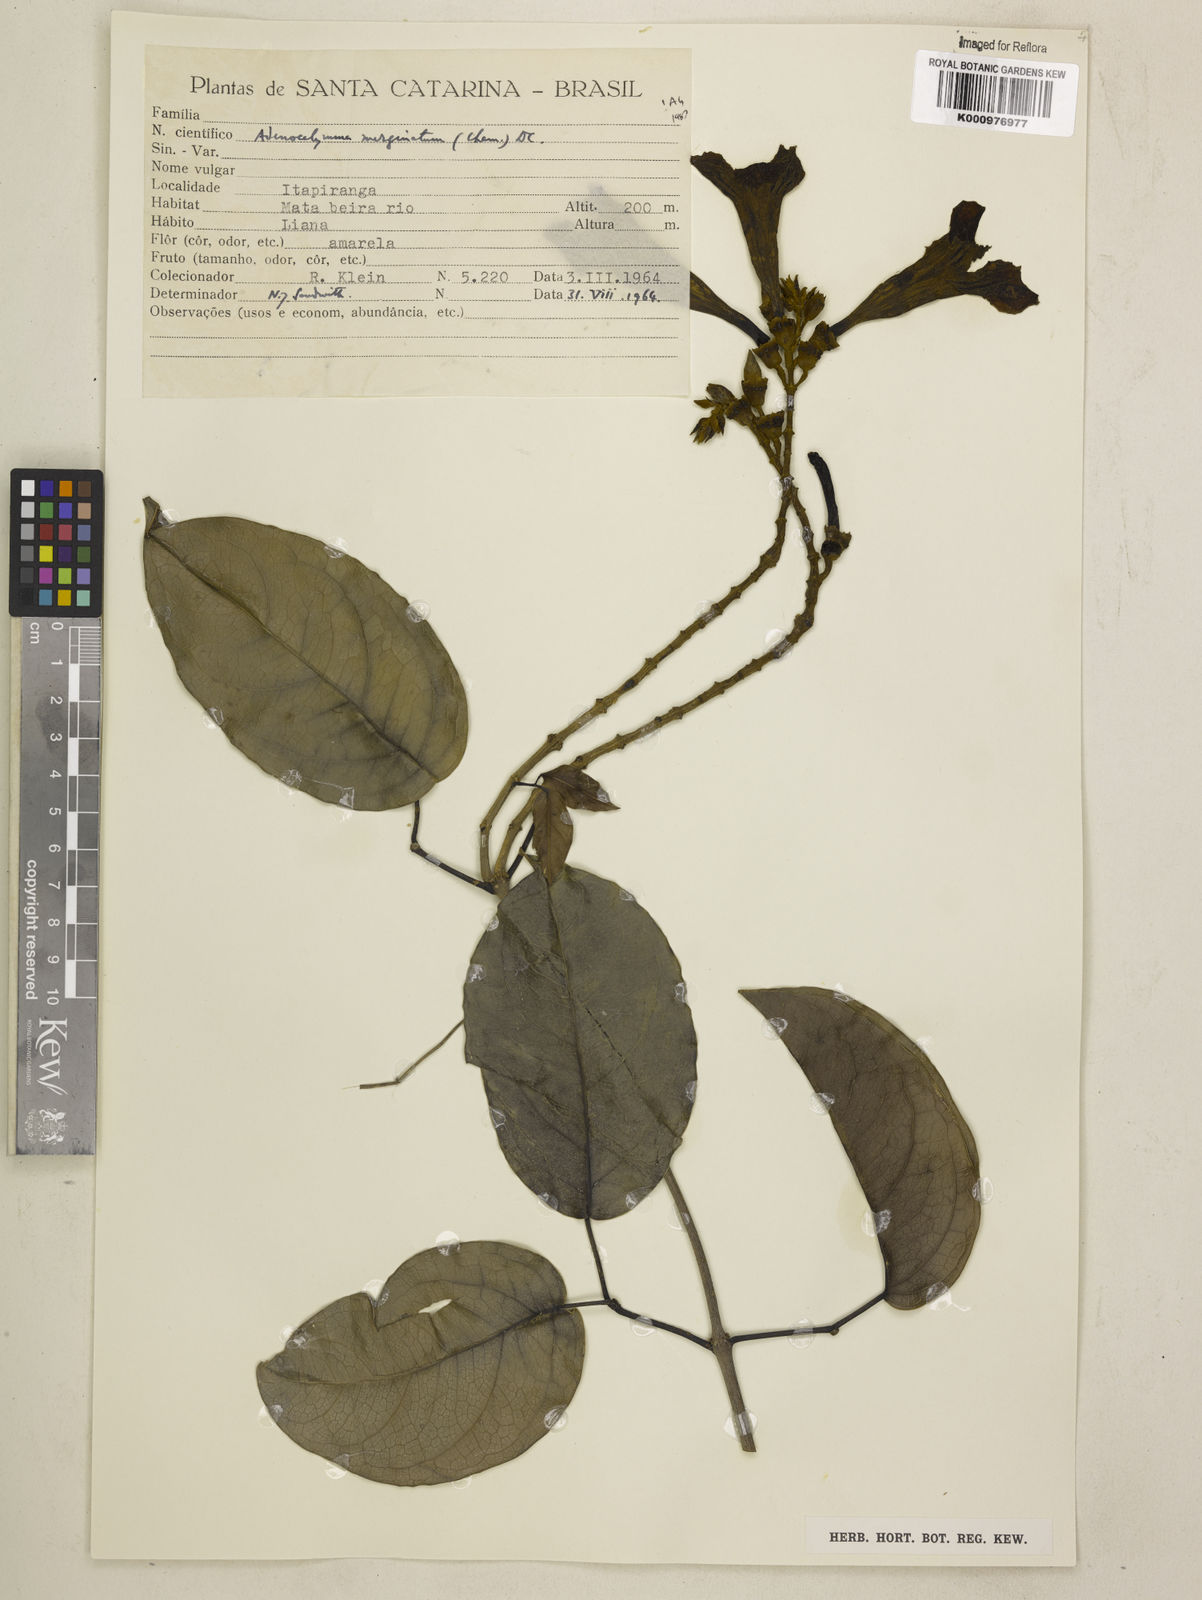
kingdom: Plantae
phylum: Tracheophyta
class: Magnoliopsida
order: Lamiales
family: Bignoniaceae
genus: Adenocalymma
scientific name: Adenocalymma marginatum
